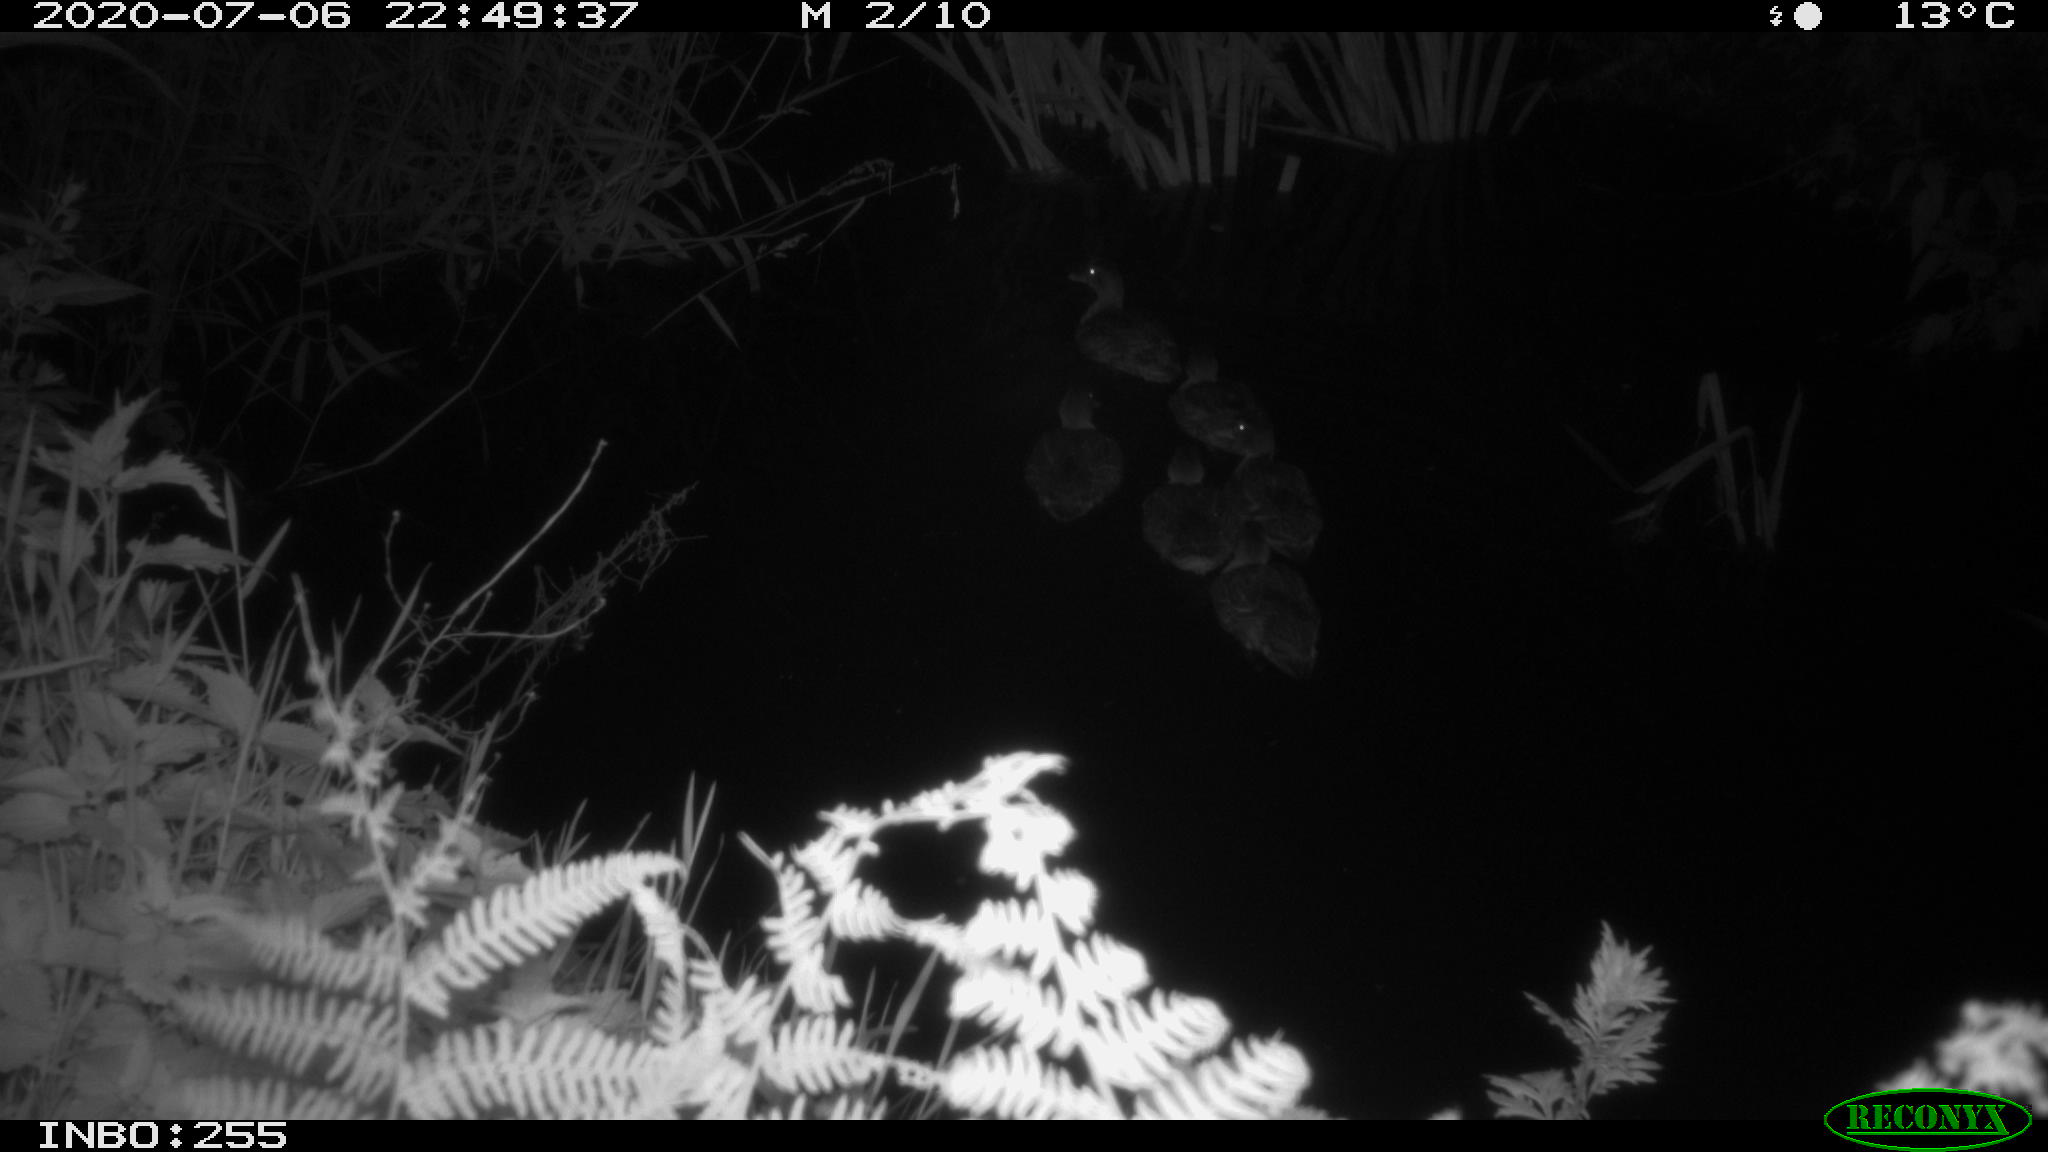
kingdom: Animalia
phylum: Chordata
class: Aves
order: Anseriformes
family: Anatidae
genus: Anas
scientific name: Anas platyrhynchos
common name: Mallard
